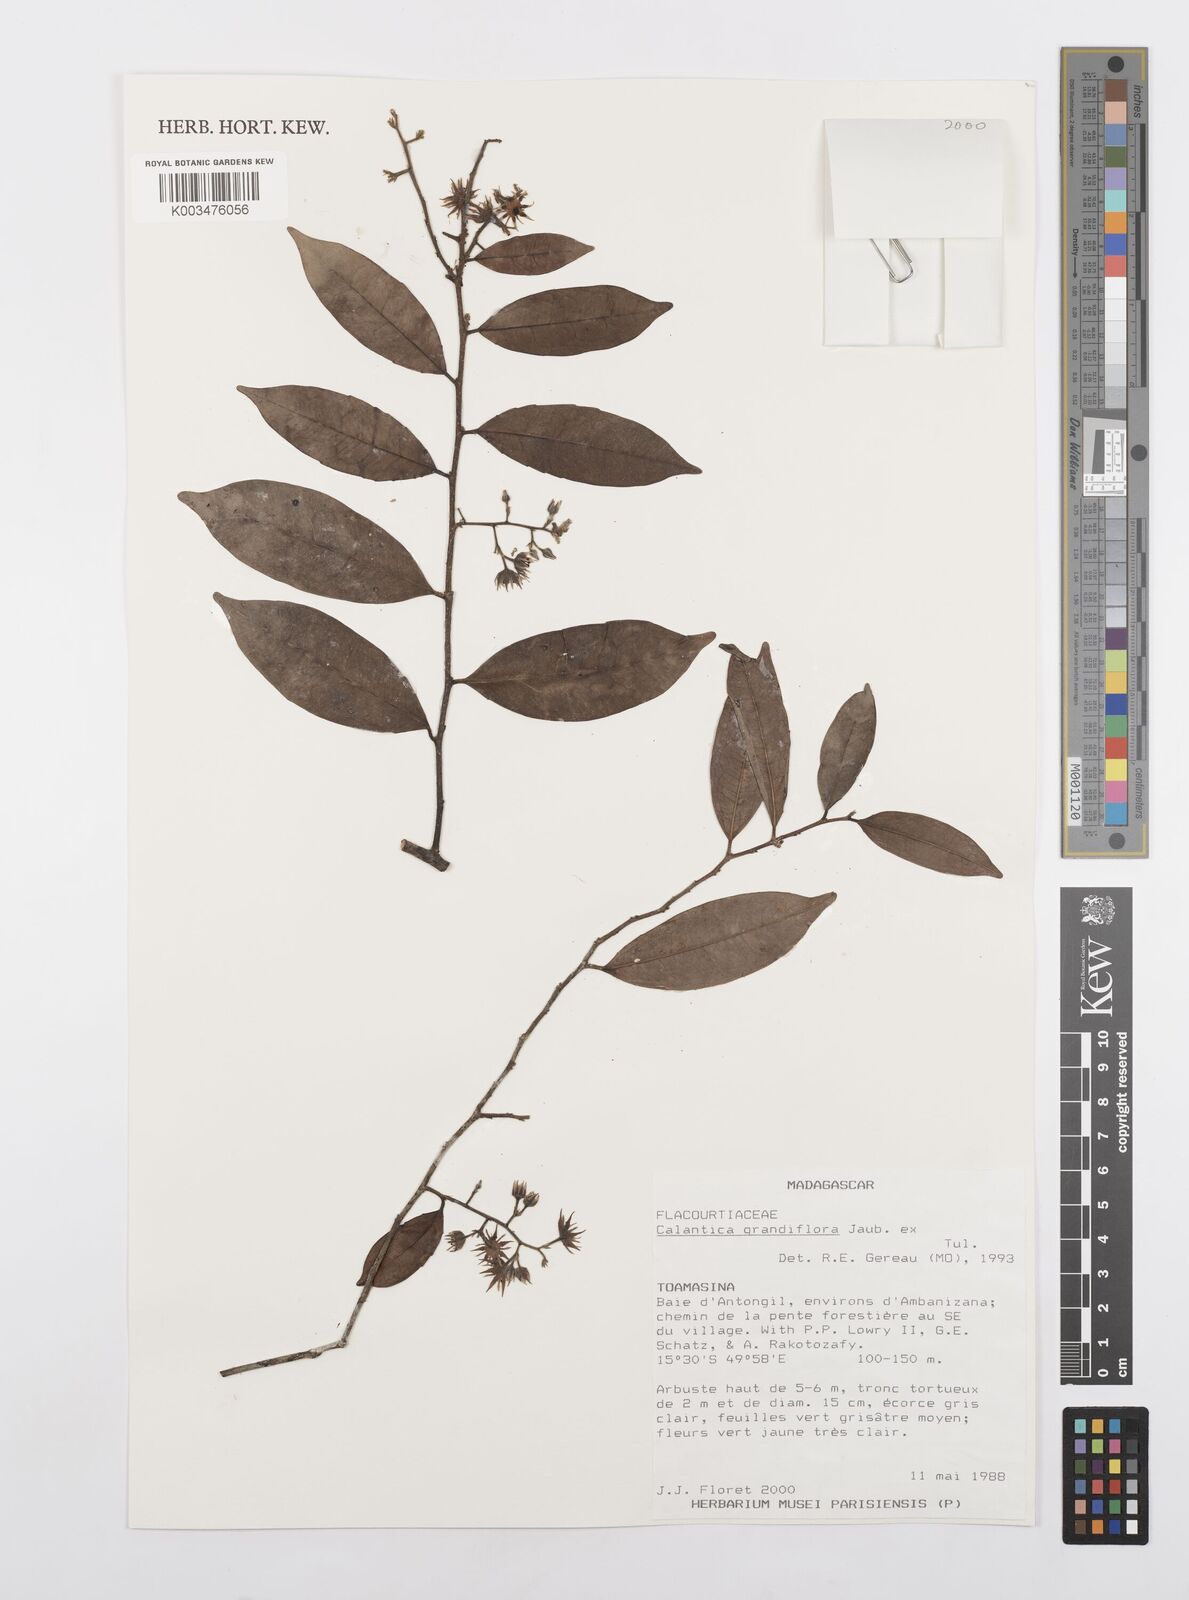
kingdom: Plantae
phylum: Tracheophyta
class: Magnoliopsida
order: Malpighiales
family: Salicaceae
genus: Calantica
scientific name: Calantica grandiflora
